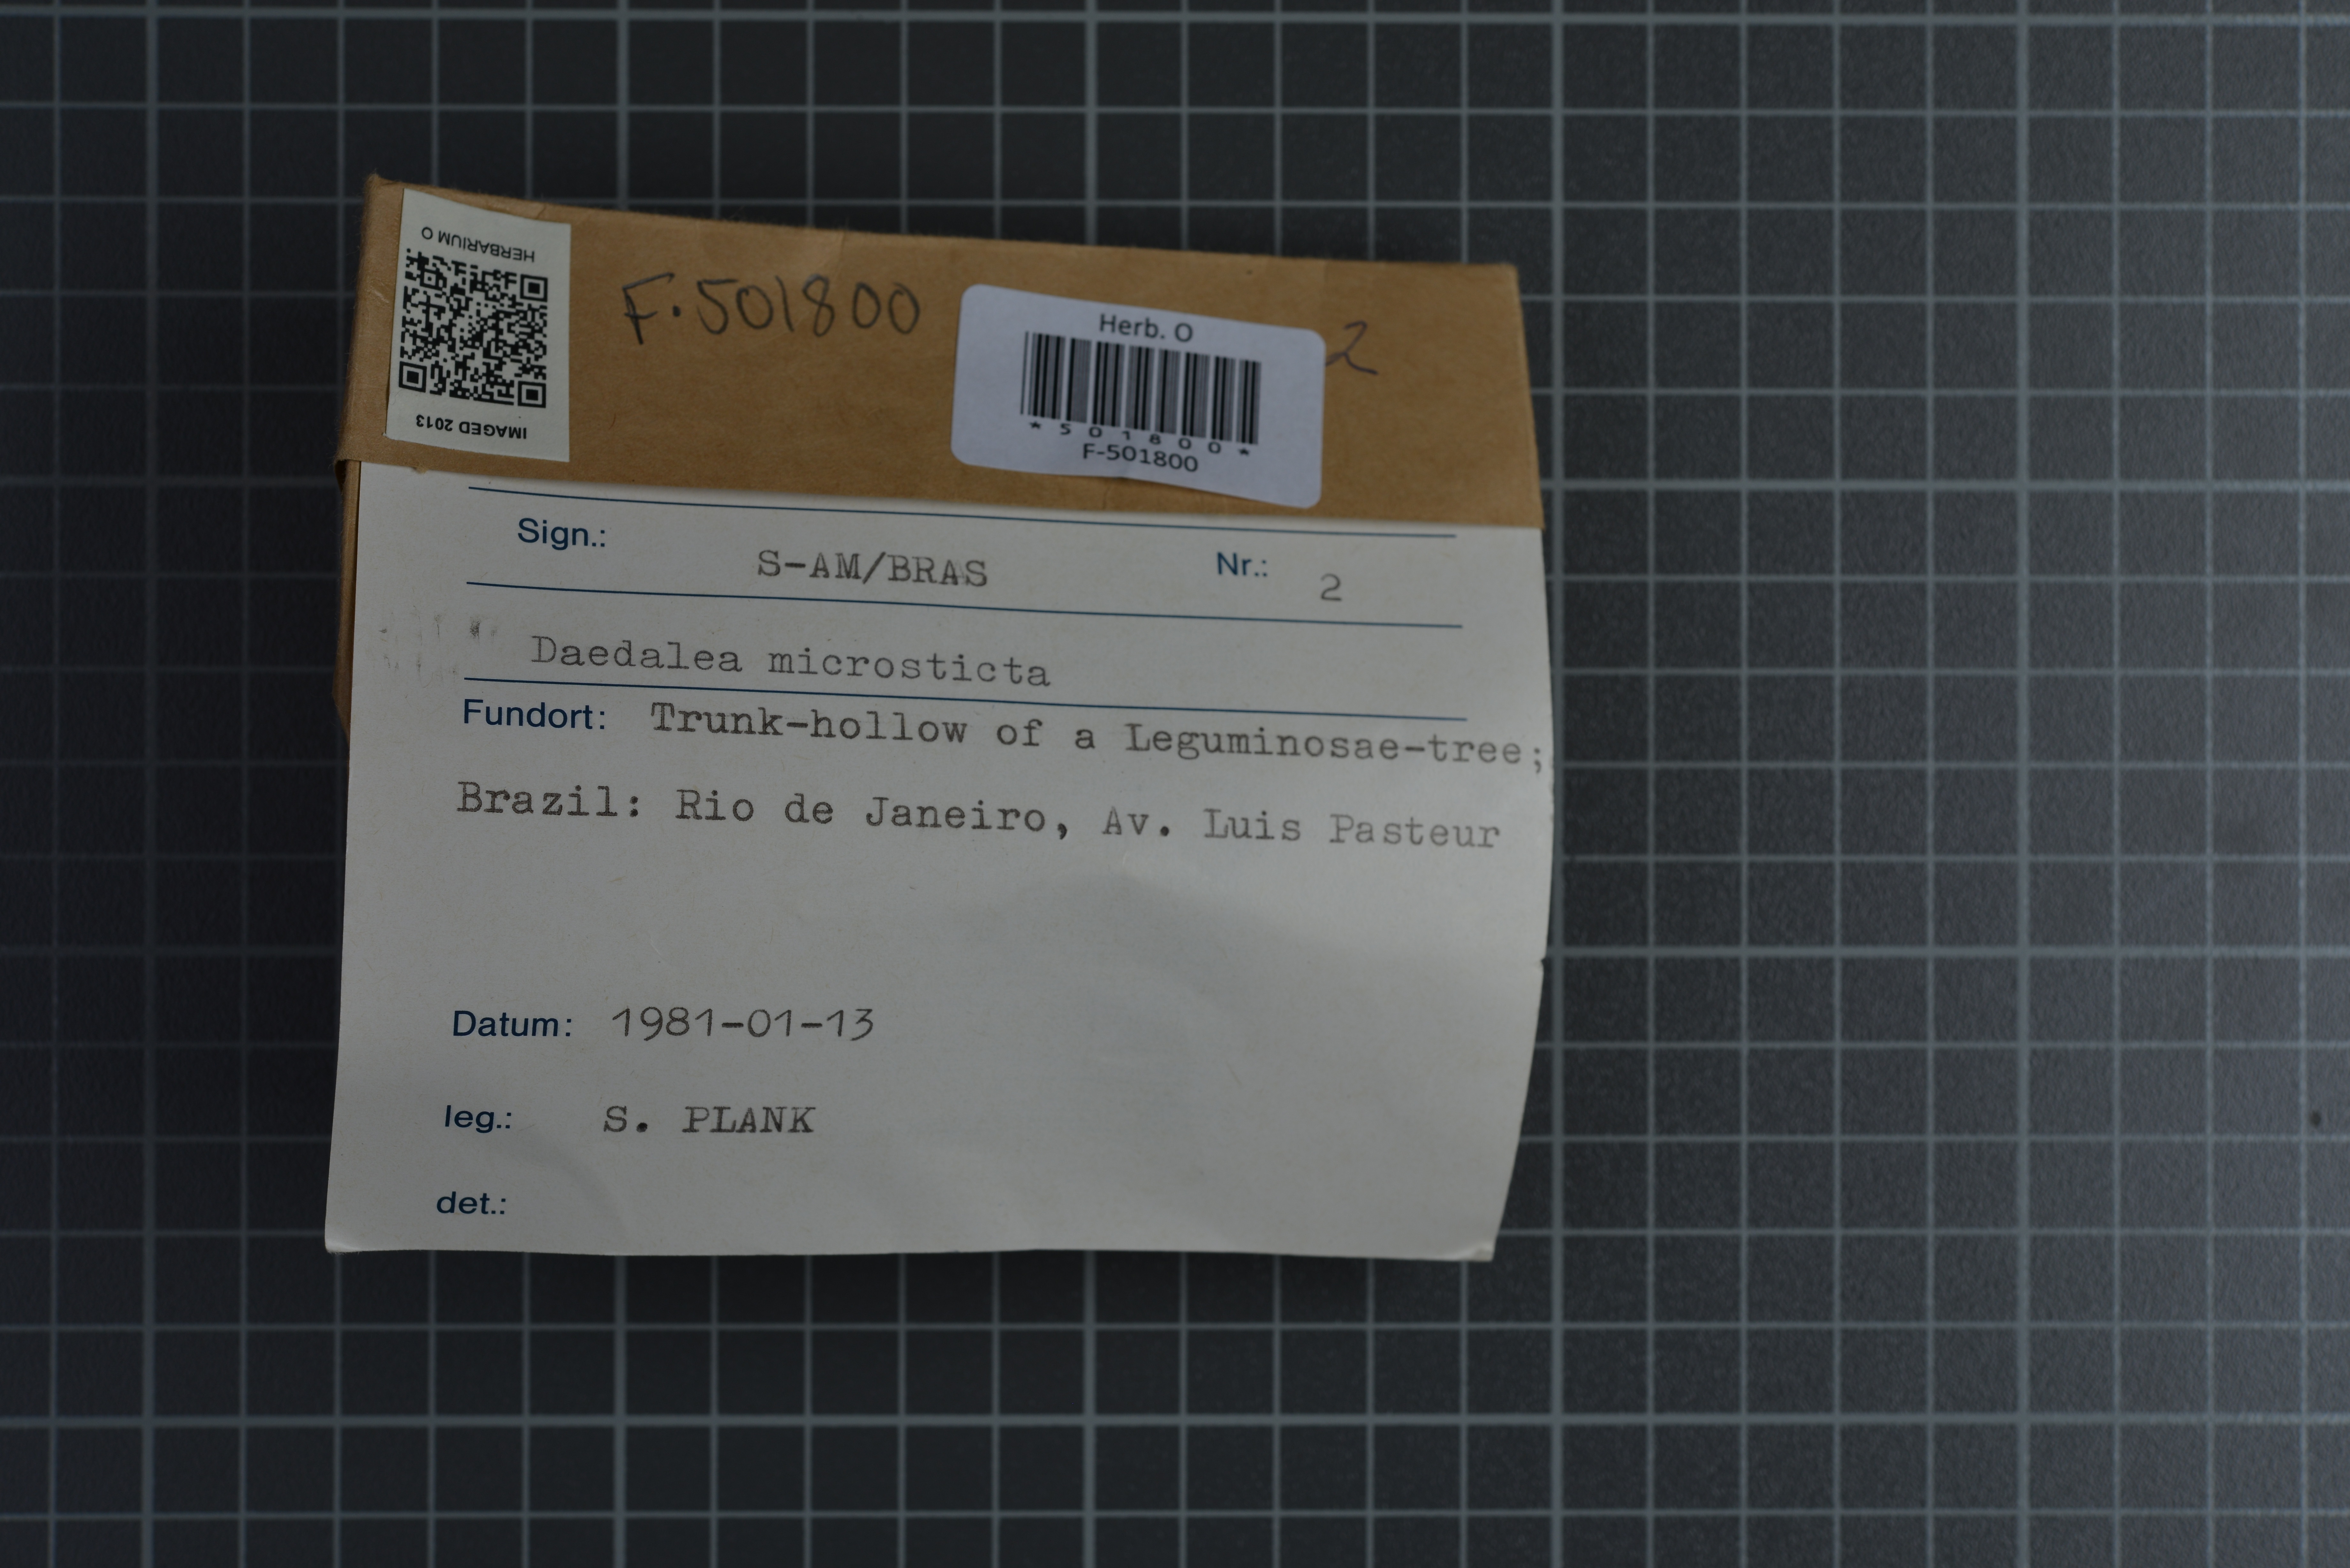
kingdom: Fungi
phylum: Basidiomycota
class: Agaricomycetes
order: Polyporales
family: Fomitopsidaceae
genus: Daedalea
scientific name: Daedalea microsticta
